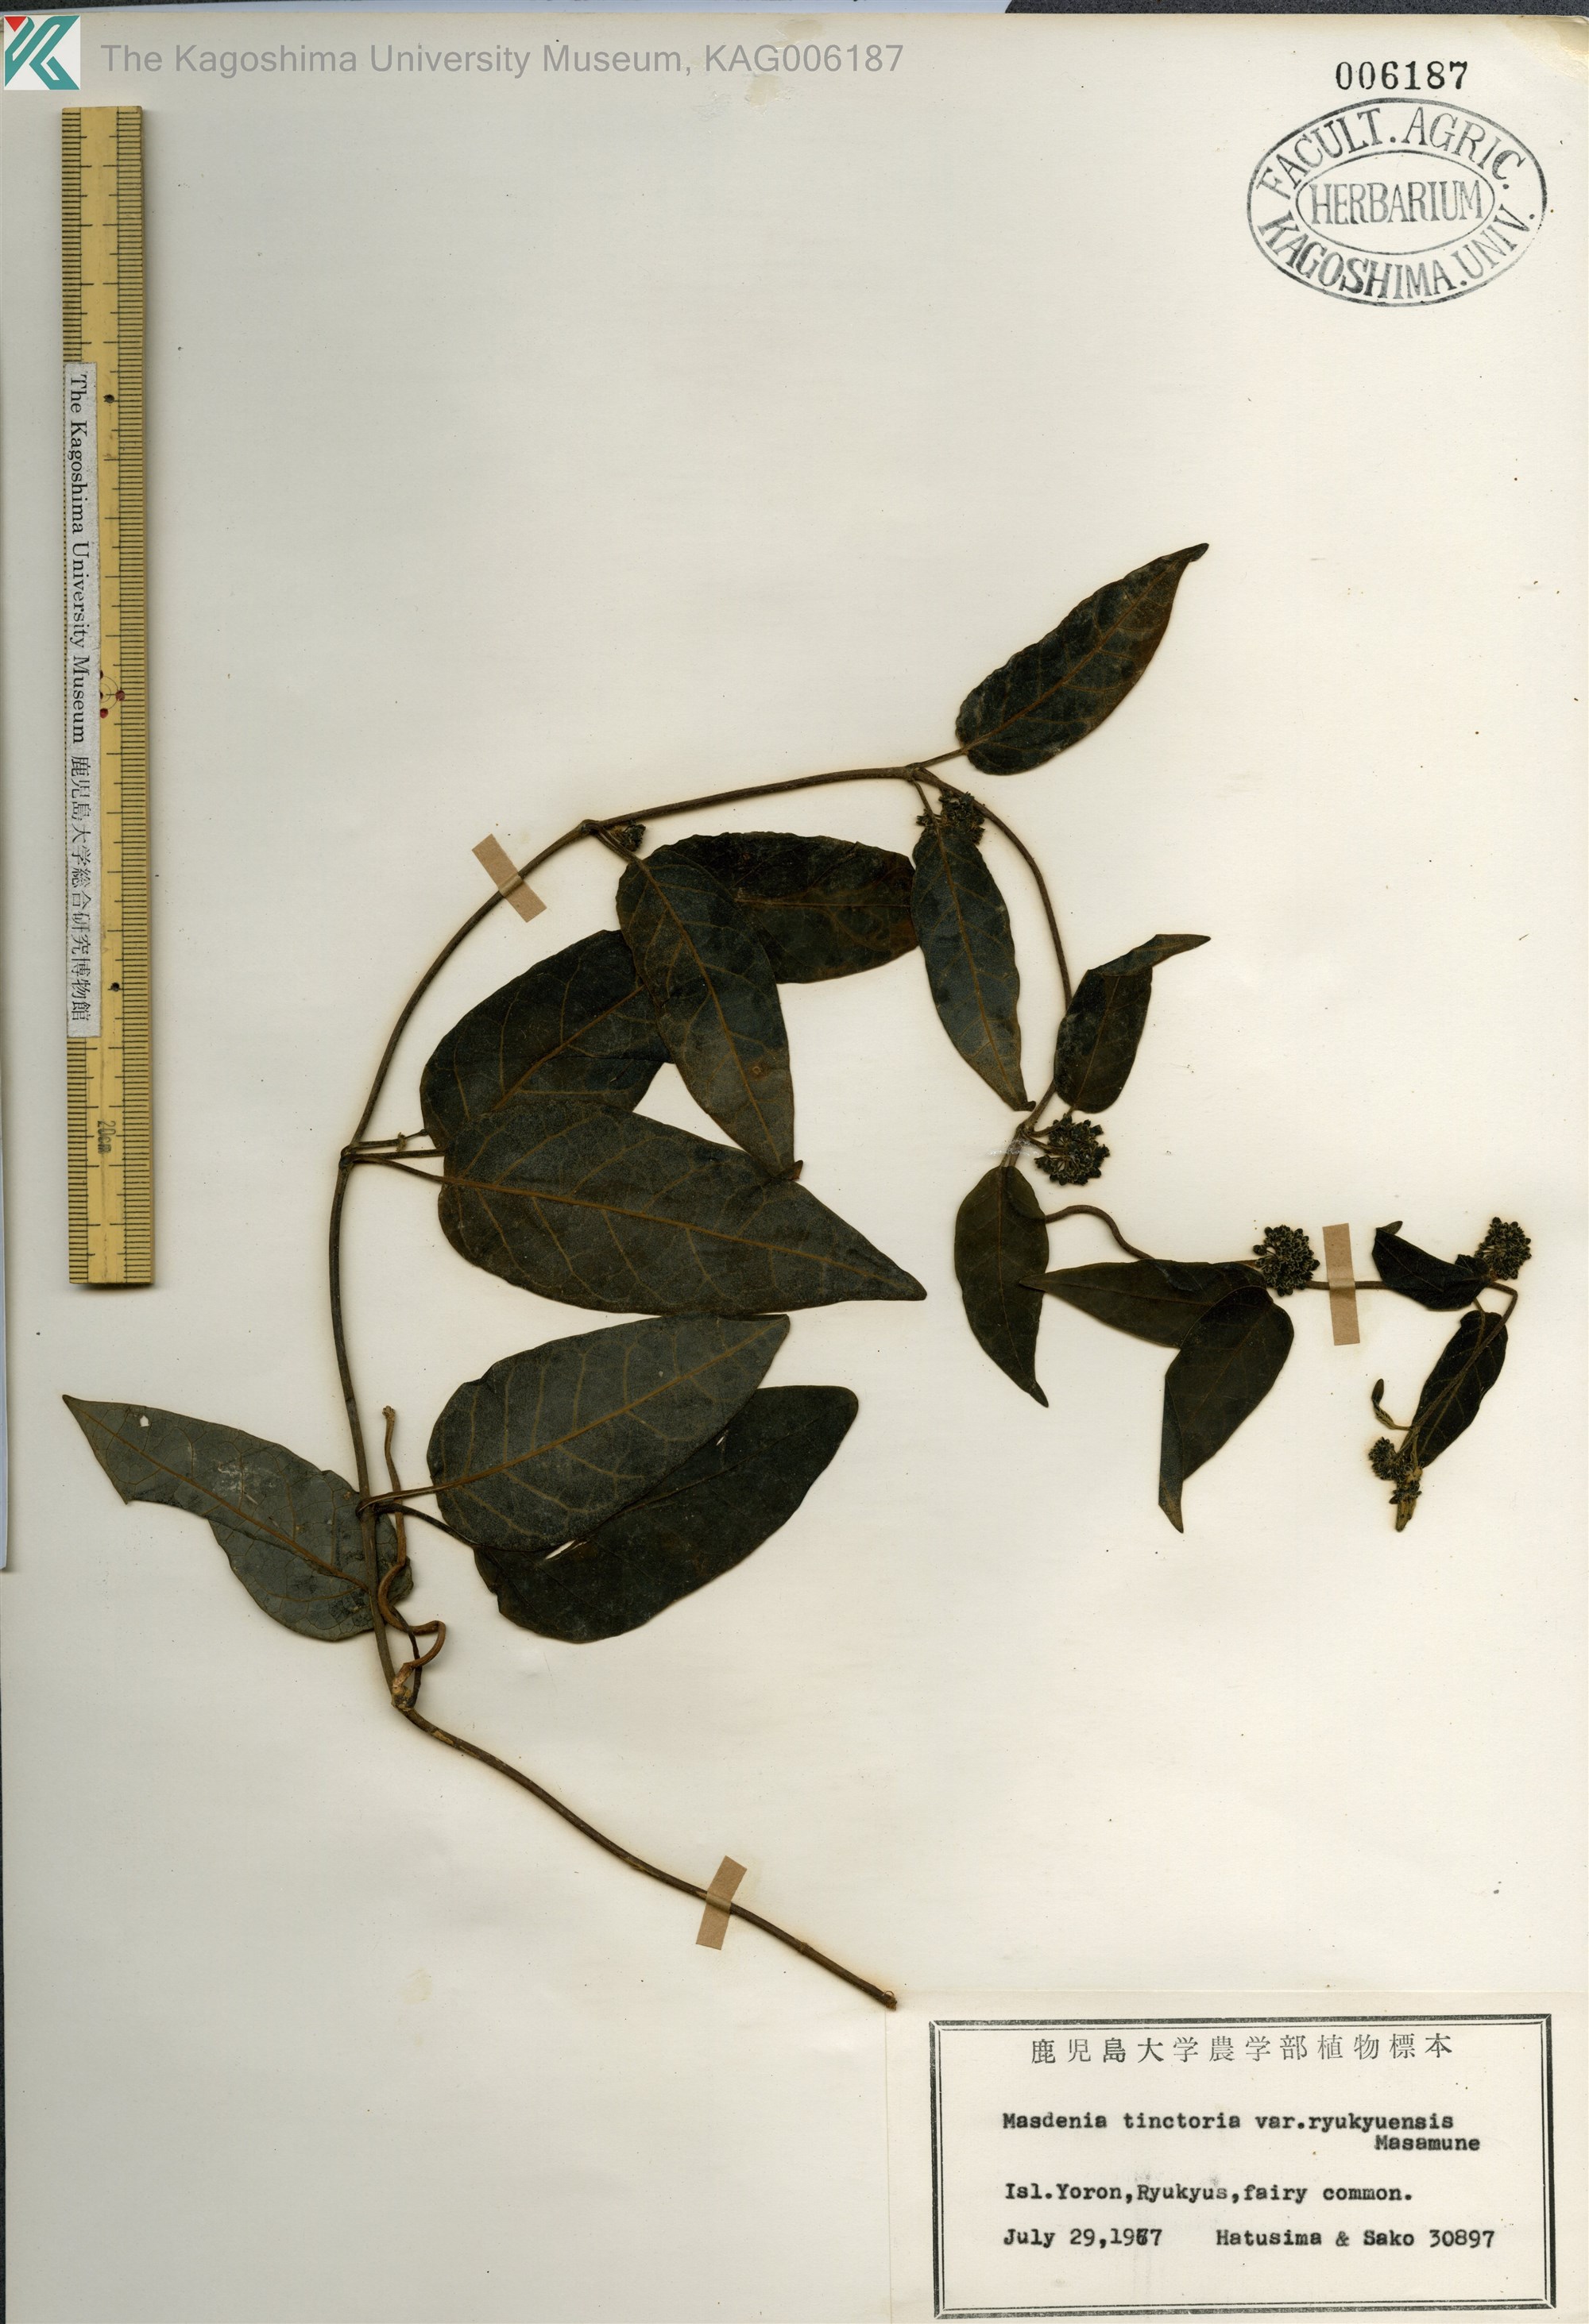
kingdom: Plantae
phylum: Tracheophyta
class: Magnoliopsida
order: Gentianales
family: Apocynaceae
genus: Marsdenia
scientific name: Marsdenia tinctoria
